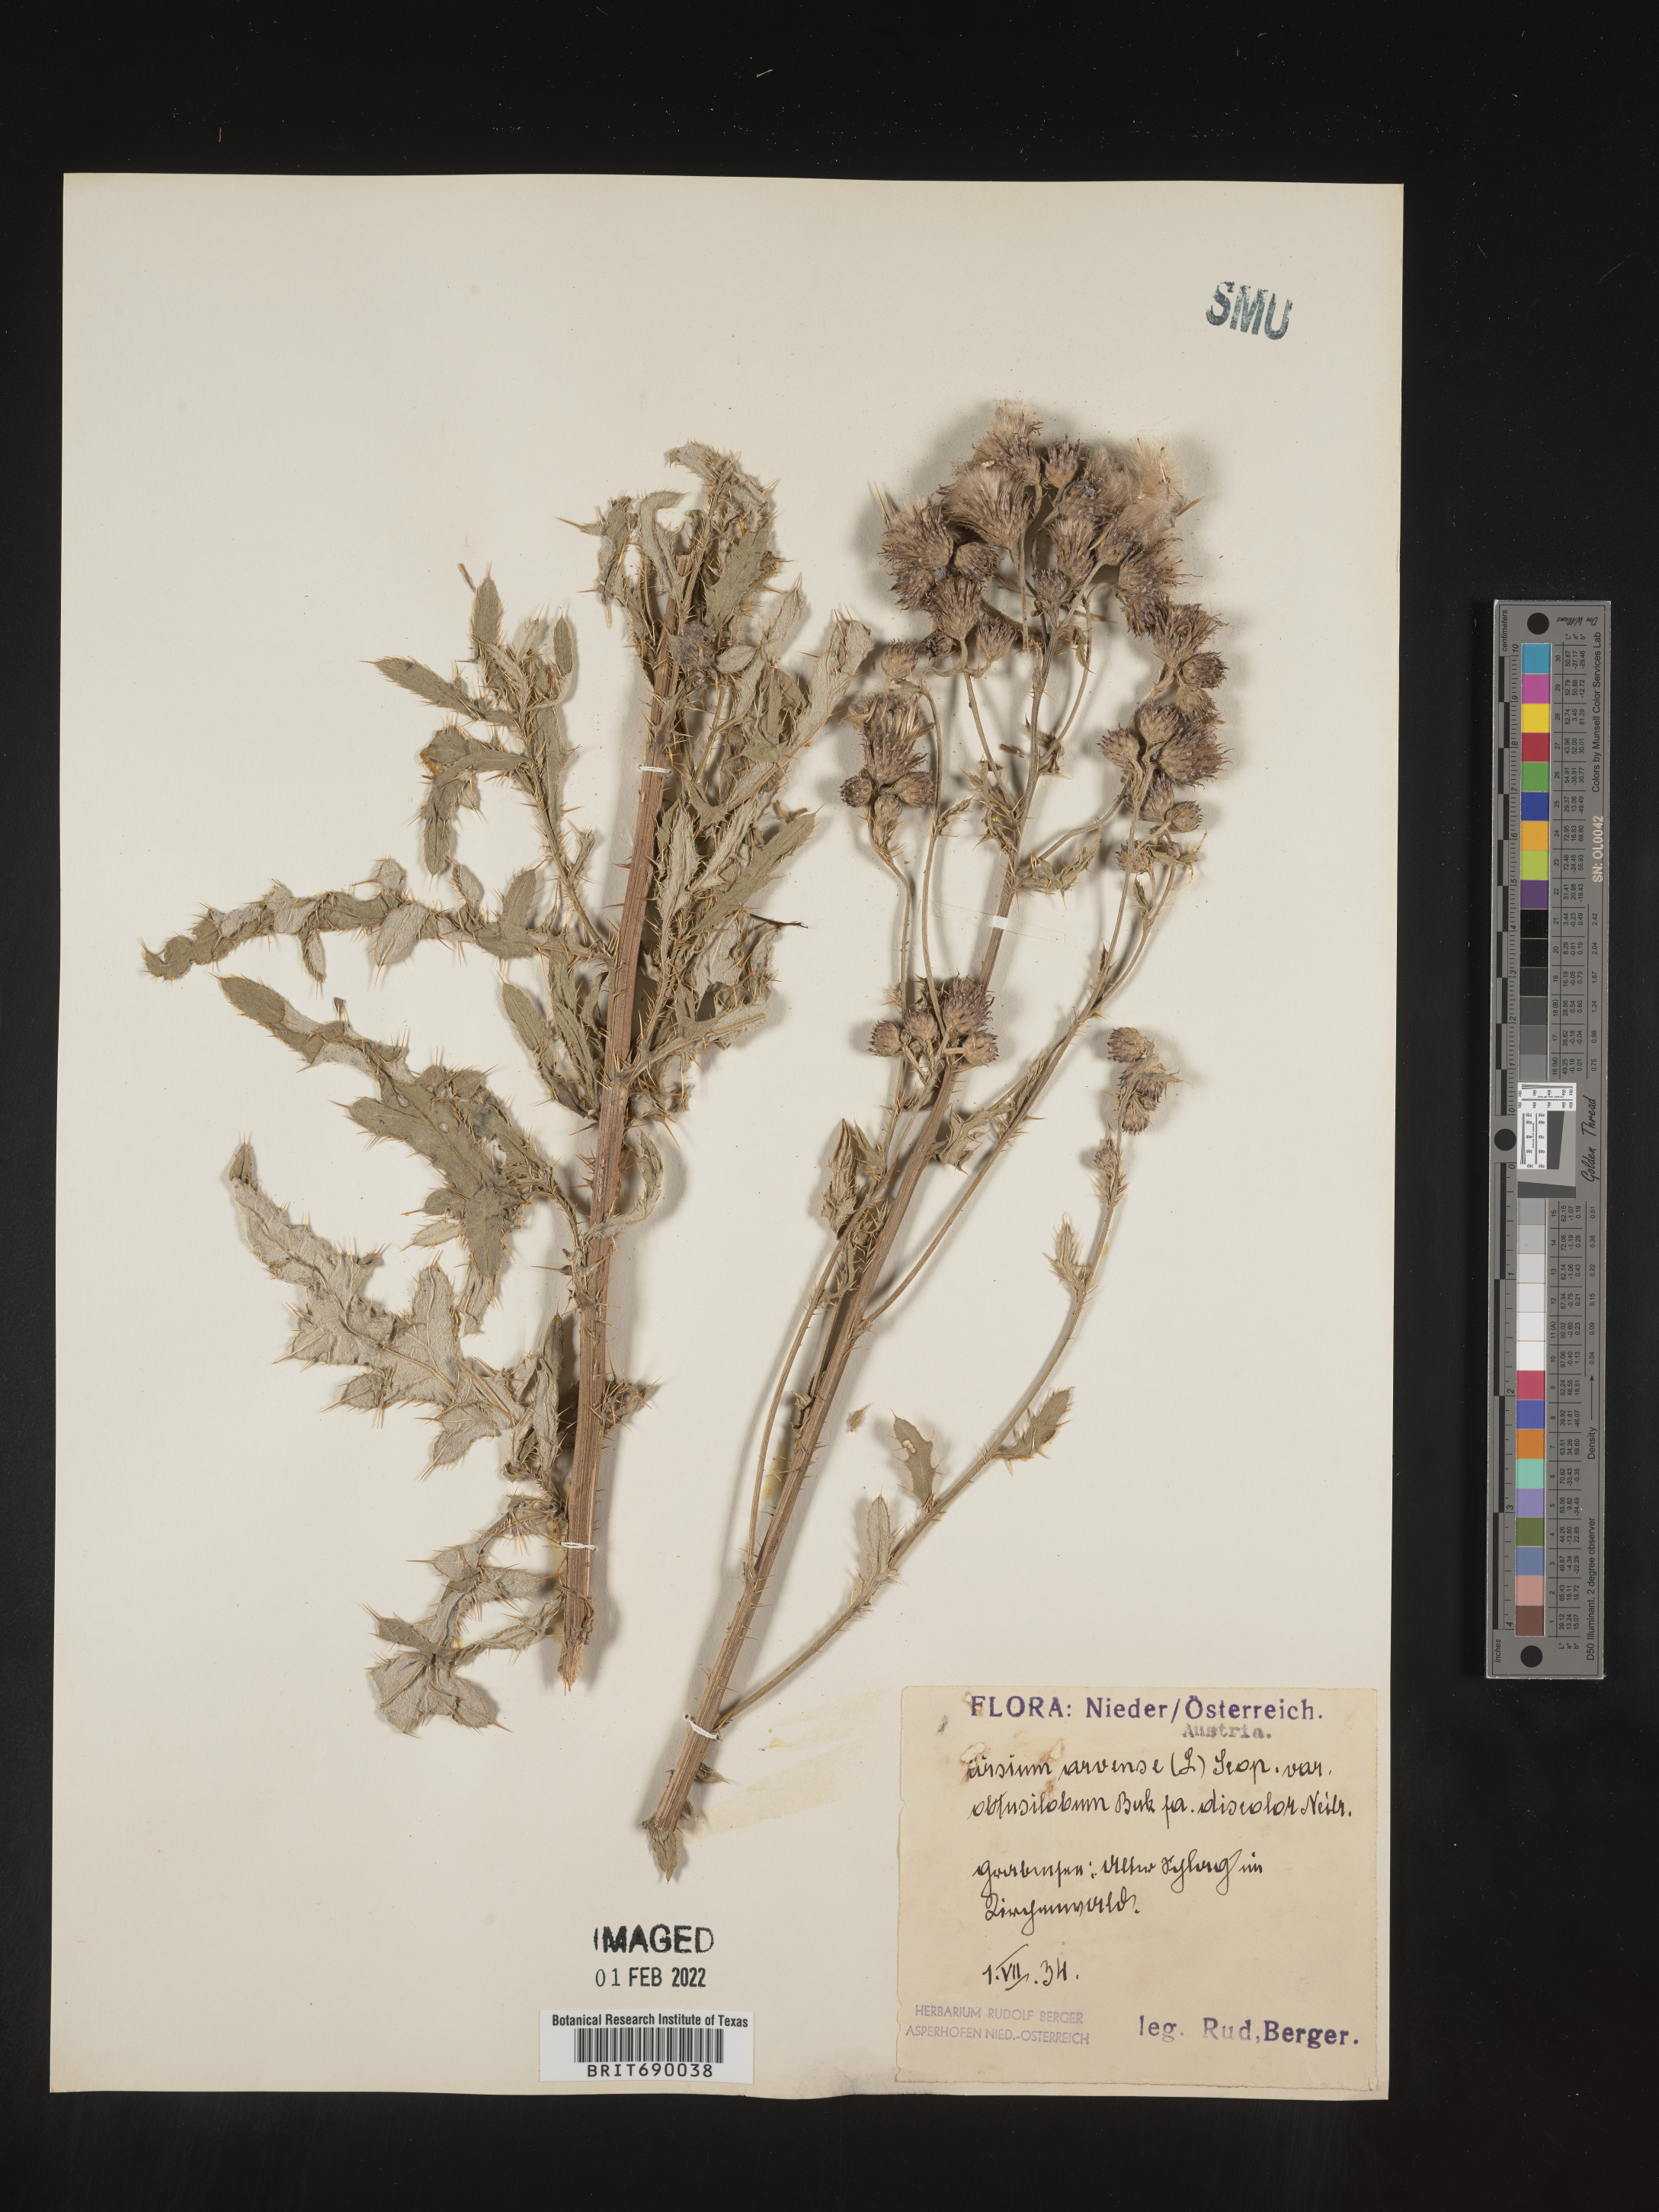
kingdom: Plantae
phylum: Tracheophyta
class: Magnoliopsida
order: Asterales
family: Asteraceae
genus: Cirsium
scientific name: Cirsium
